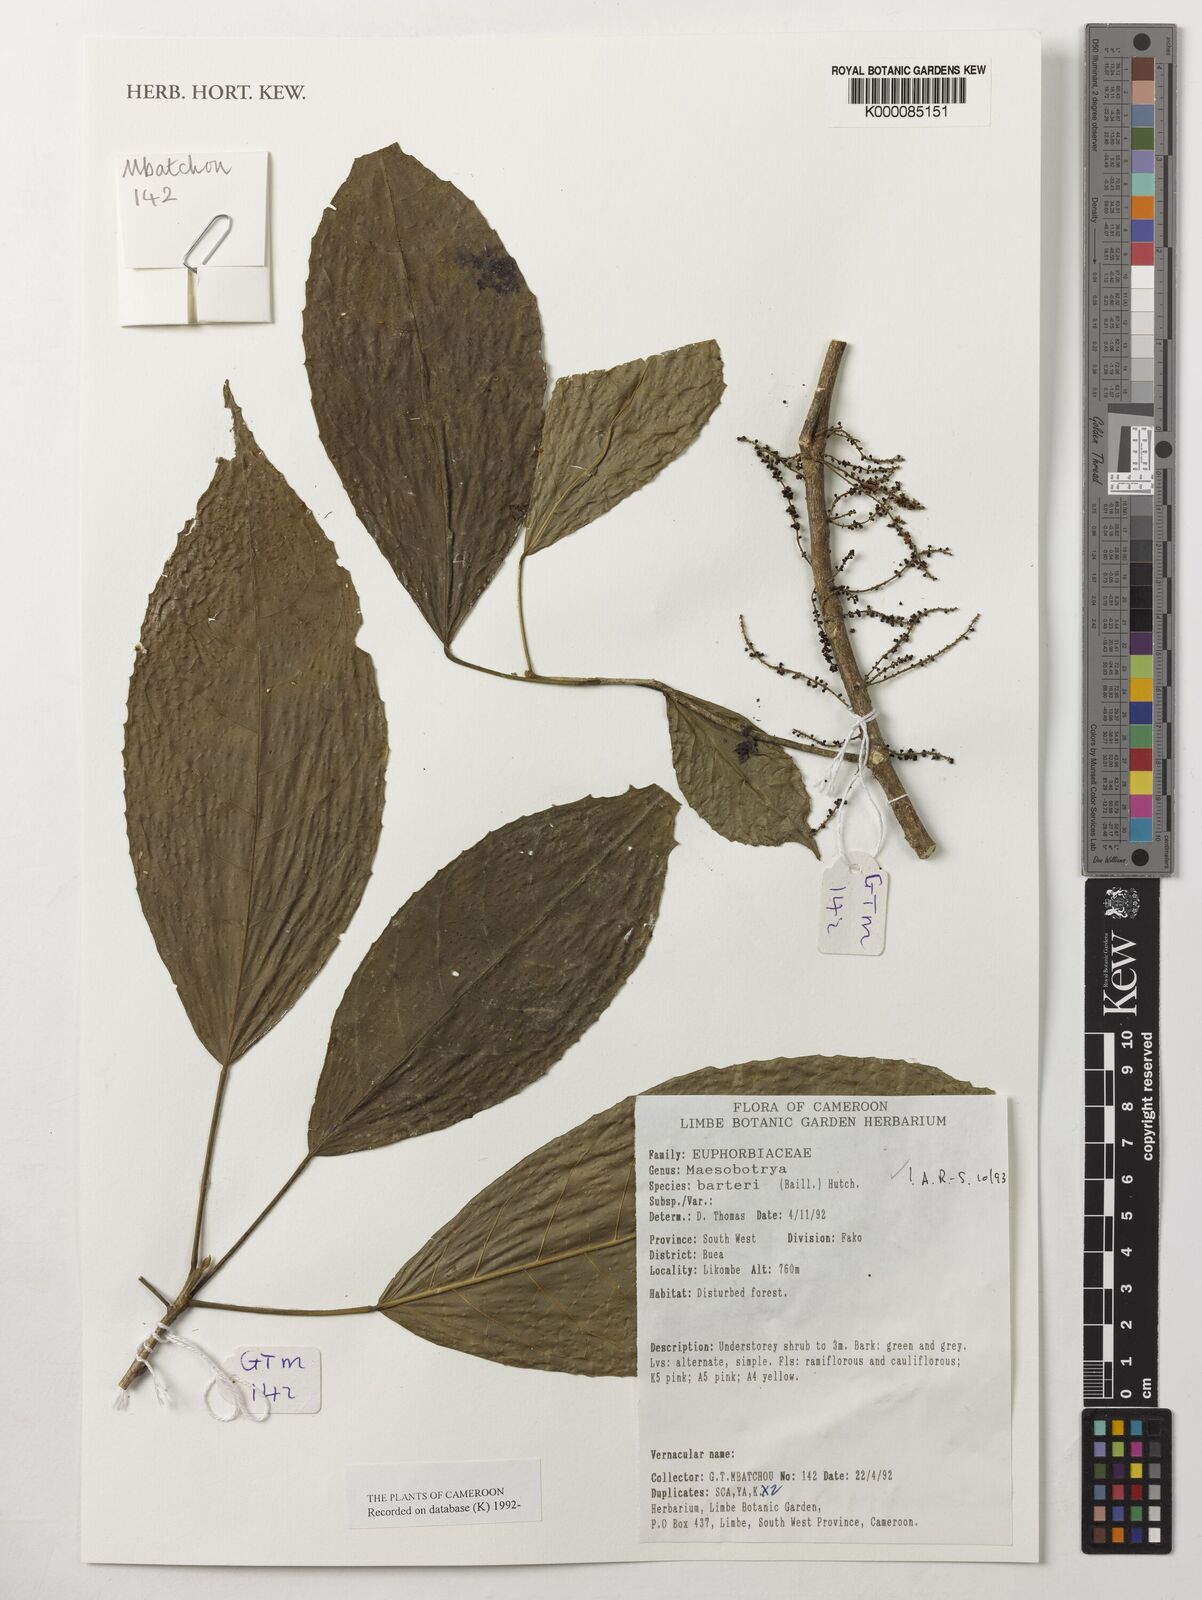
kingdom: Plantae
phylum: Tracheophyta
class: Magnoliopsida
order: Malpighiales
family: Phyllanthaceae
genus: Maesobotrya
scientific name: Maesobotrya barteri
